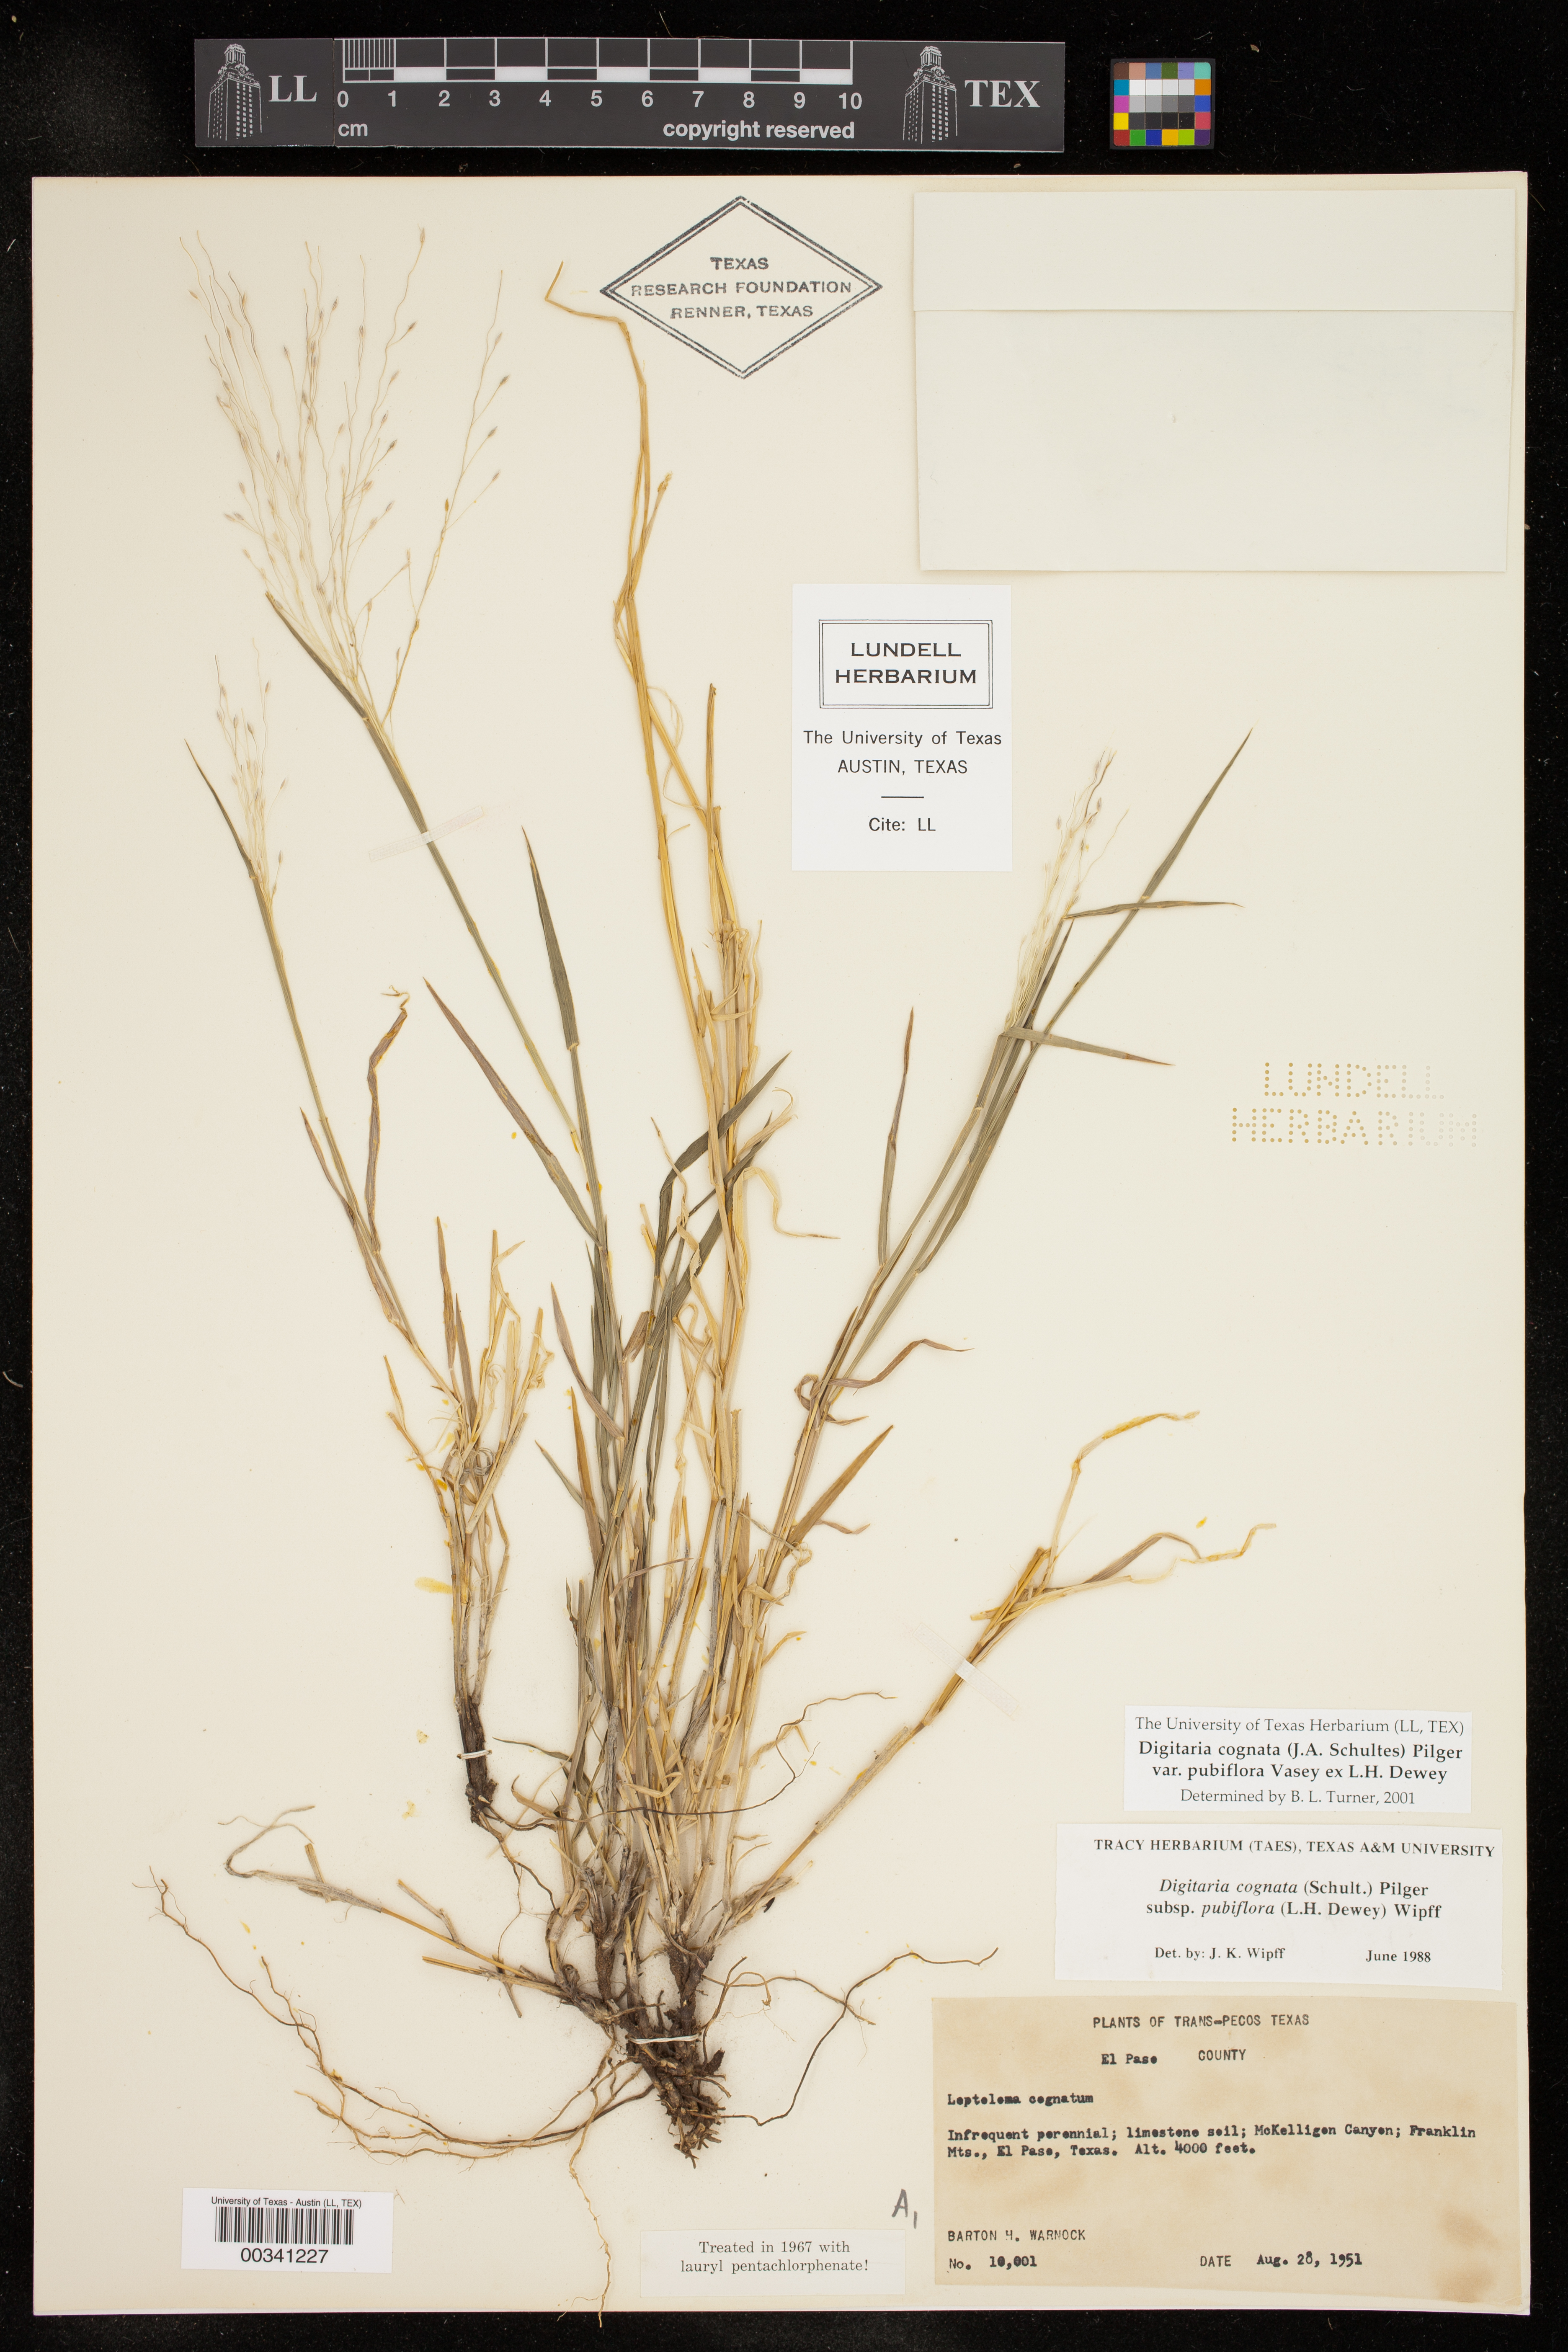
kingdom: Plantae
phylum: Tracheophyta
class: Liliopsida
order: Poales
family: Poaceae
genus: Digitaria
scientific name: Digitaria cognata
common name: Fall witchgrass
